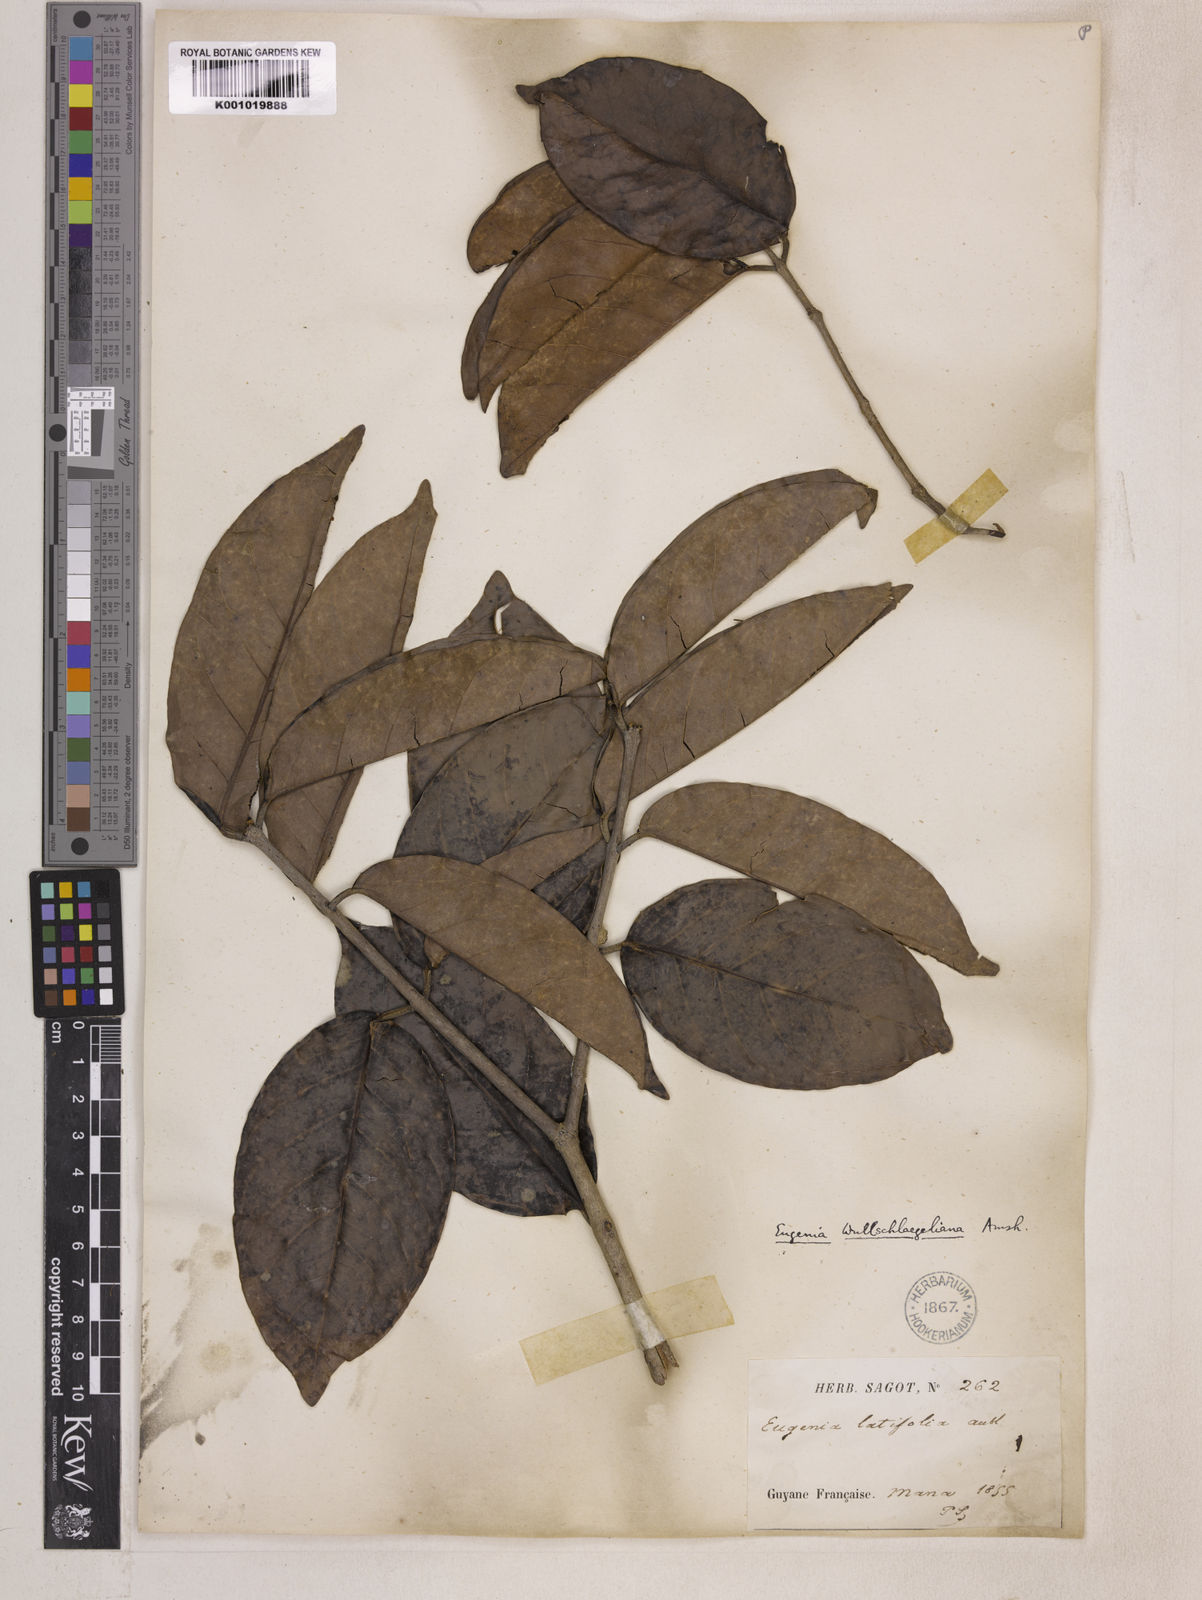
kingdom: Plantae
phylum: Tracheophyta
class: Magnoliopsida
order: Myrtales
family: Myrtaceae
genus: Eugenia
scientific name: Eugenia wullschlaegeliana
